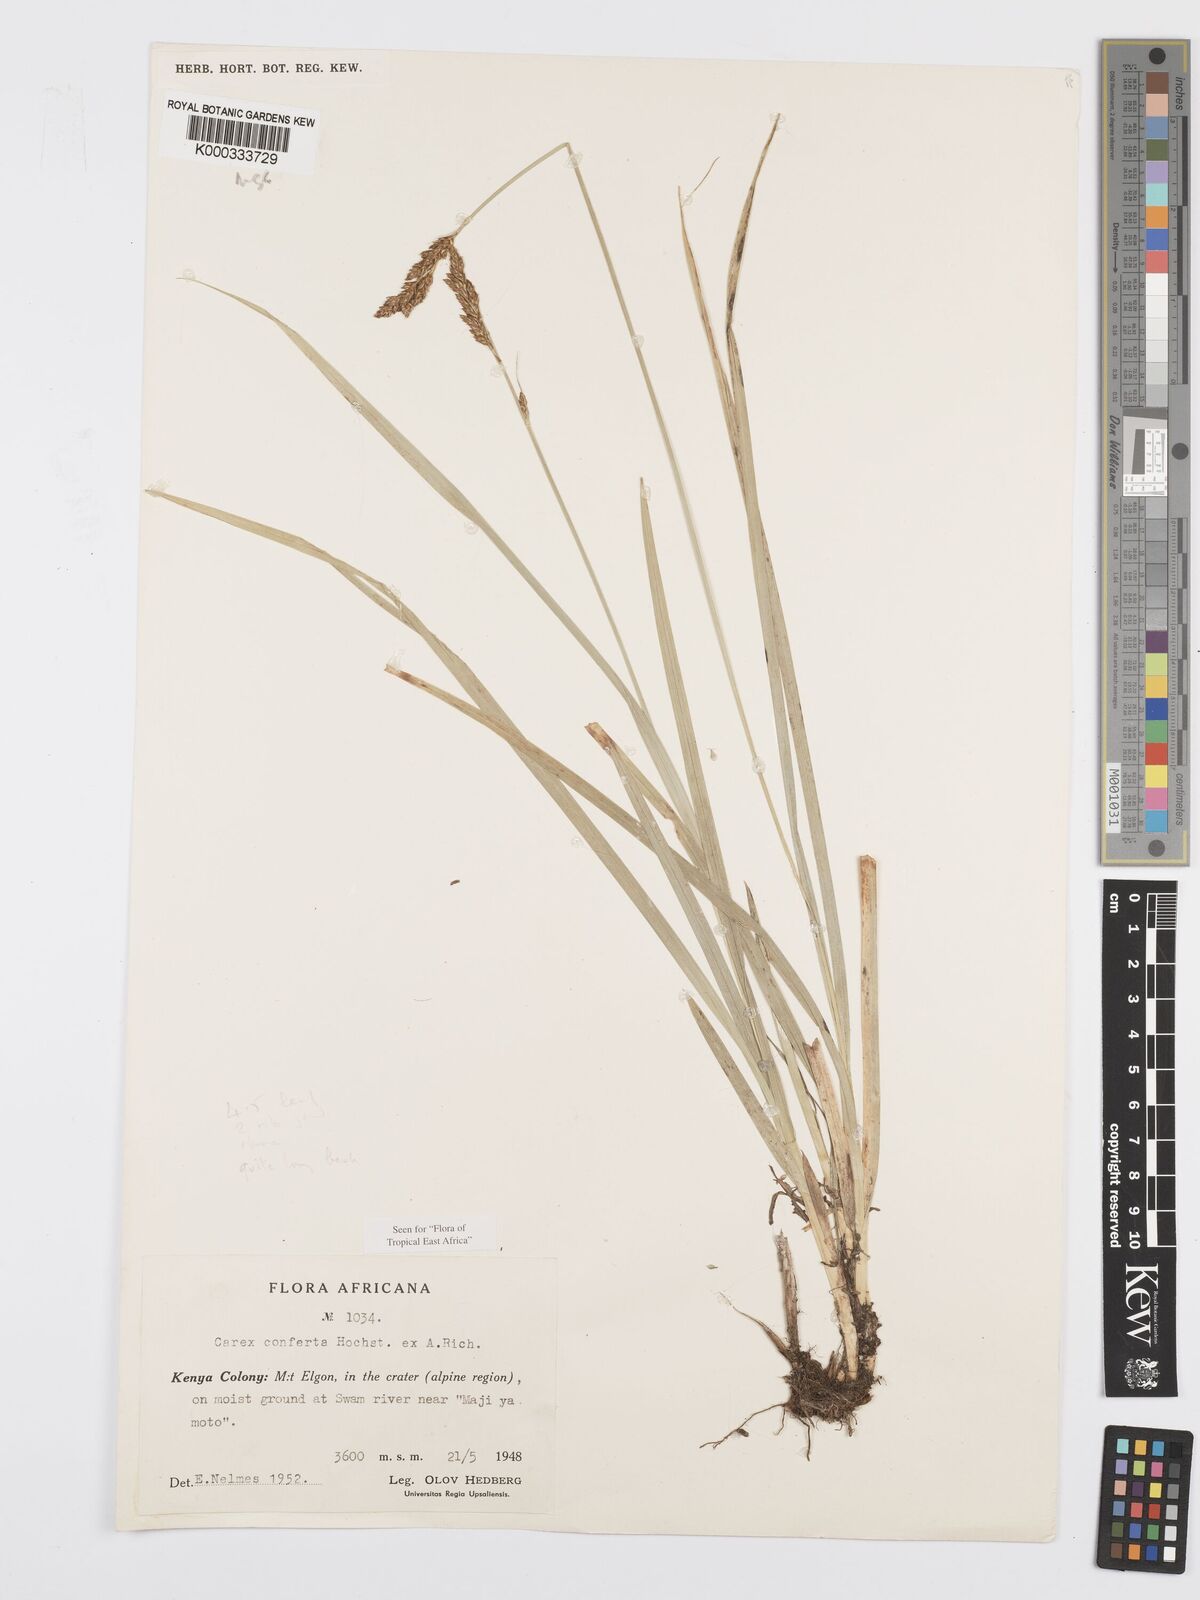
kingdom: Plantae
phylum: Tracheophyta
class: Liliopsida
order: Poales
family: Cyperaceae
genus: Carex
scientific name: Carex conferta
